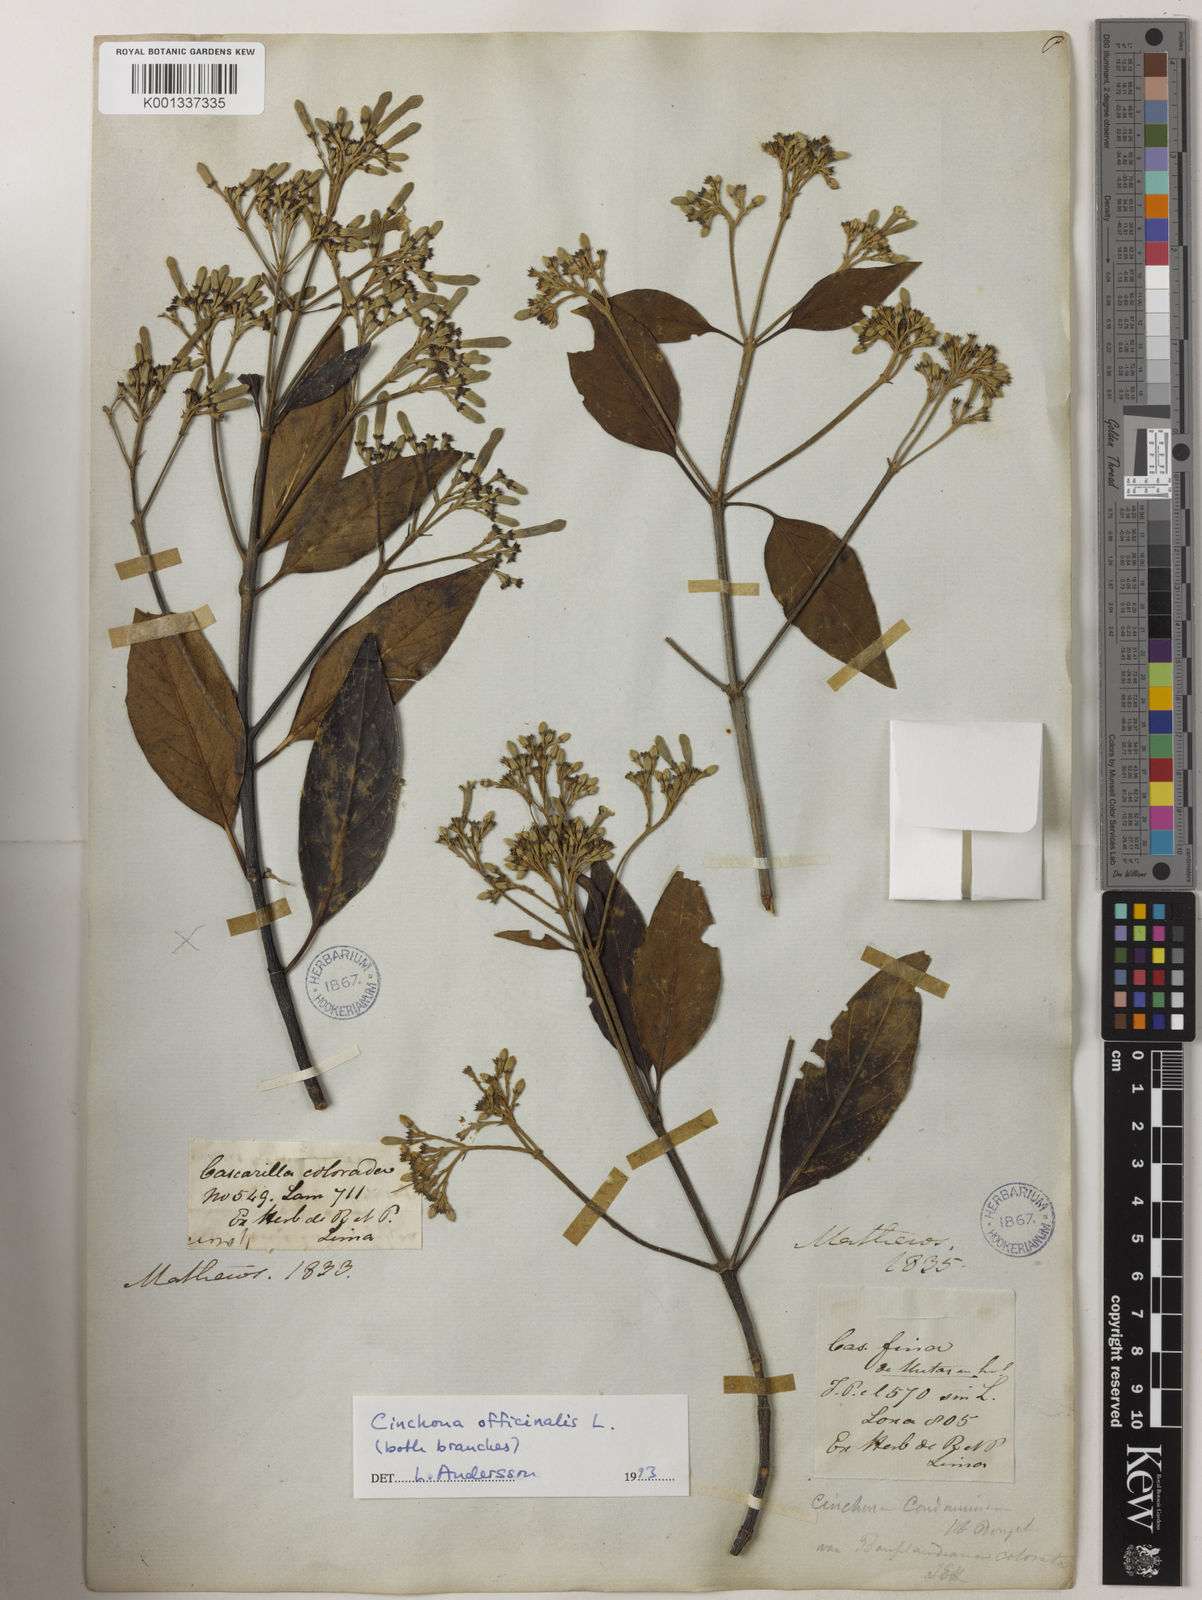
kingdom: Plantae
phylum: Tracheophyta
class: Magnoliopsida
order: Gentianales
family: Rubiaceae
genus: Cinchona
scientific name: Cinchona officinalis
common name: Lojabark
